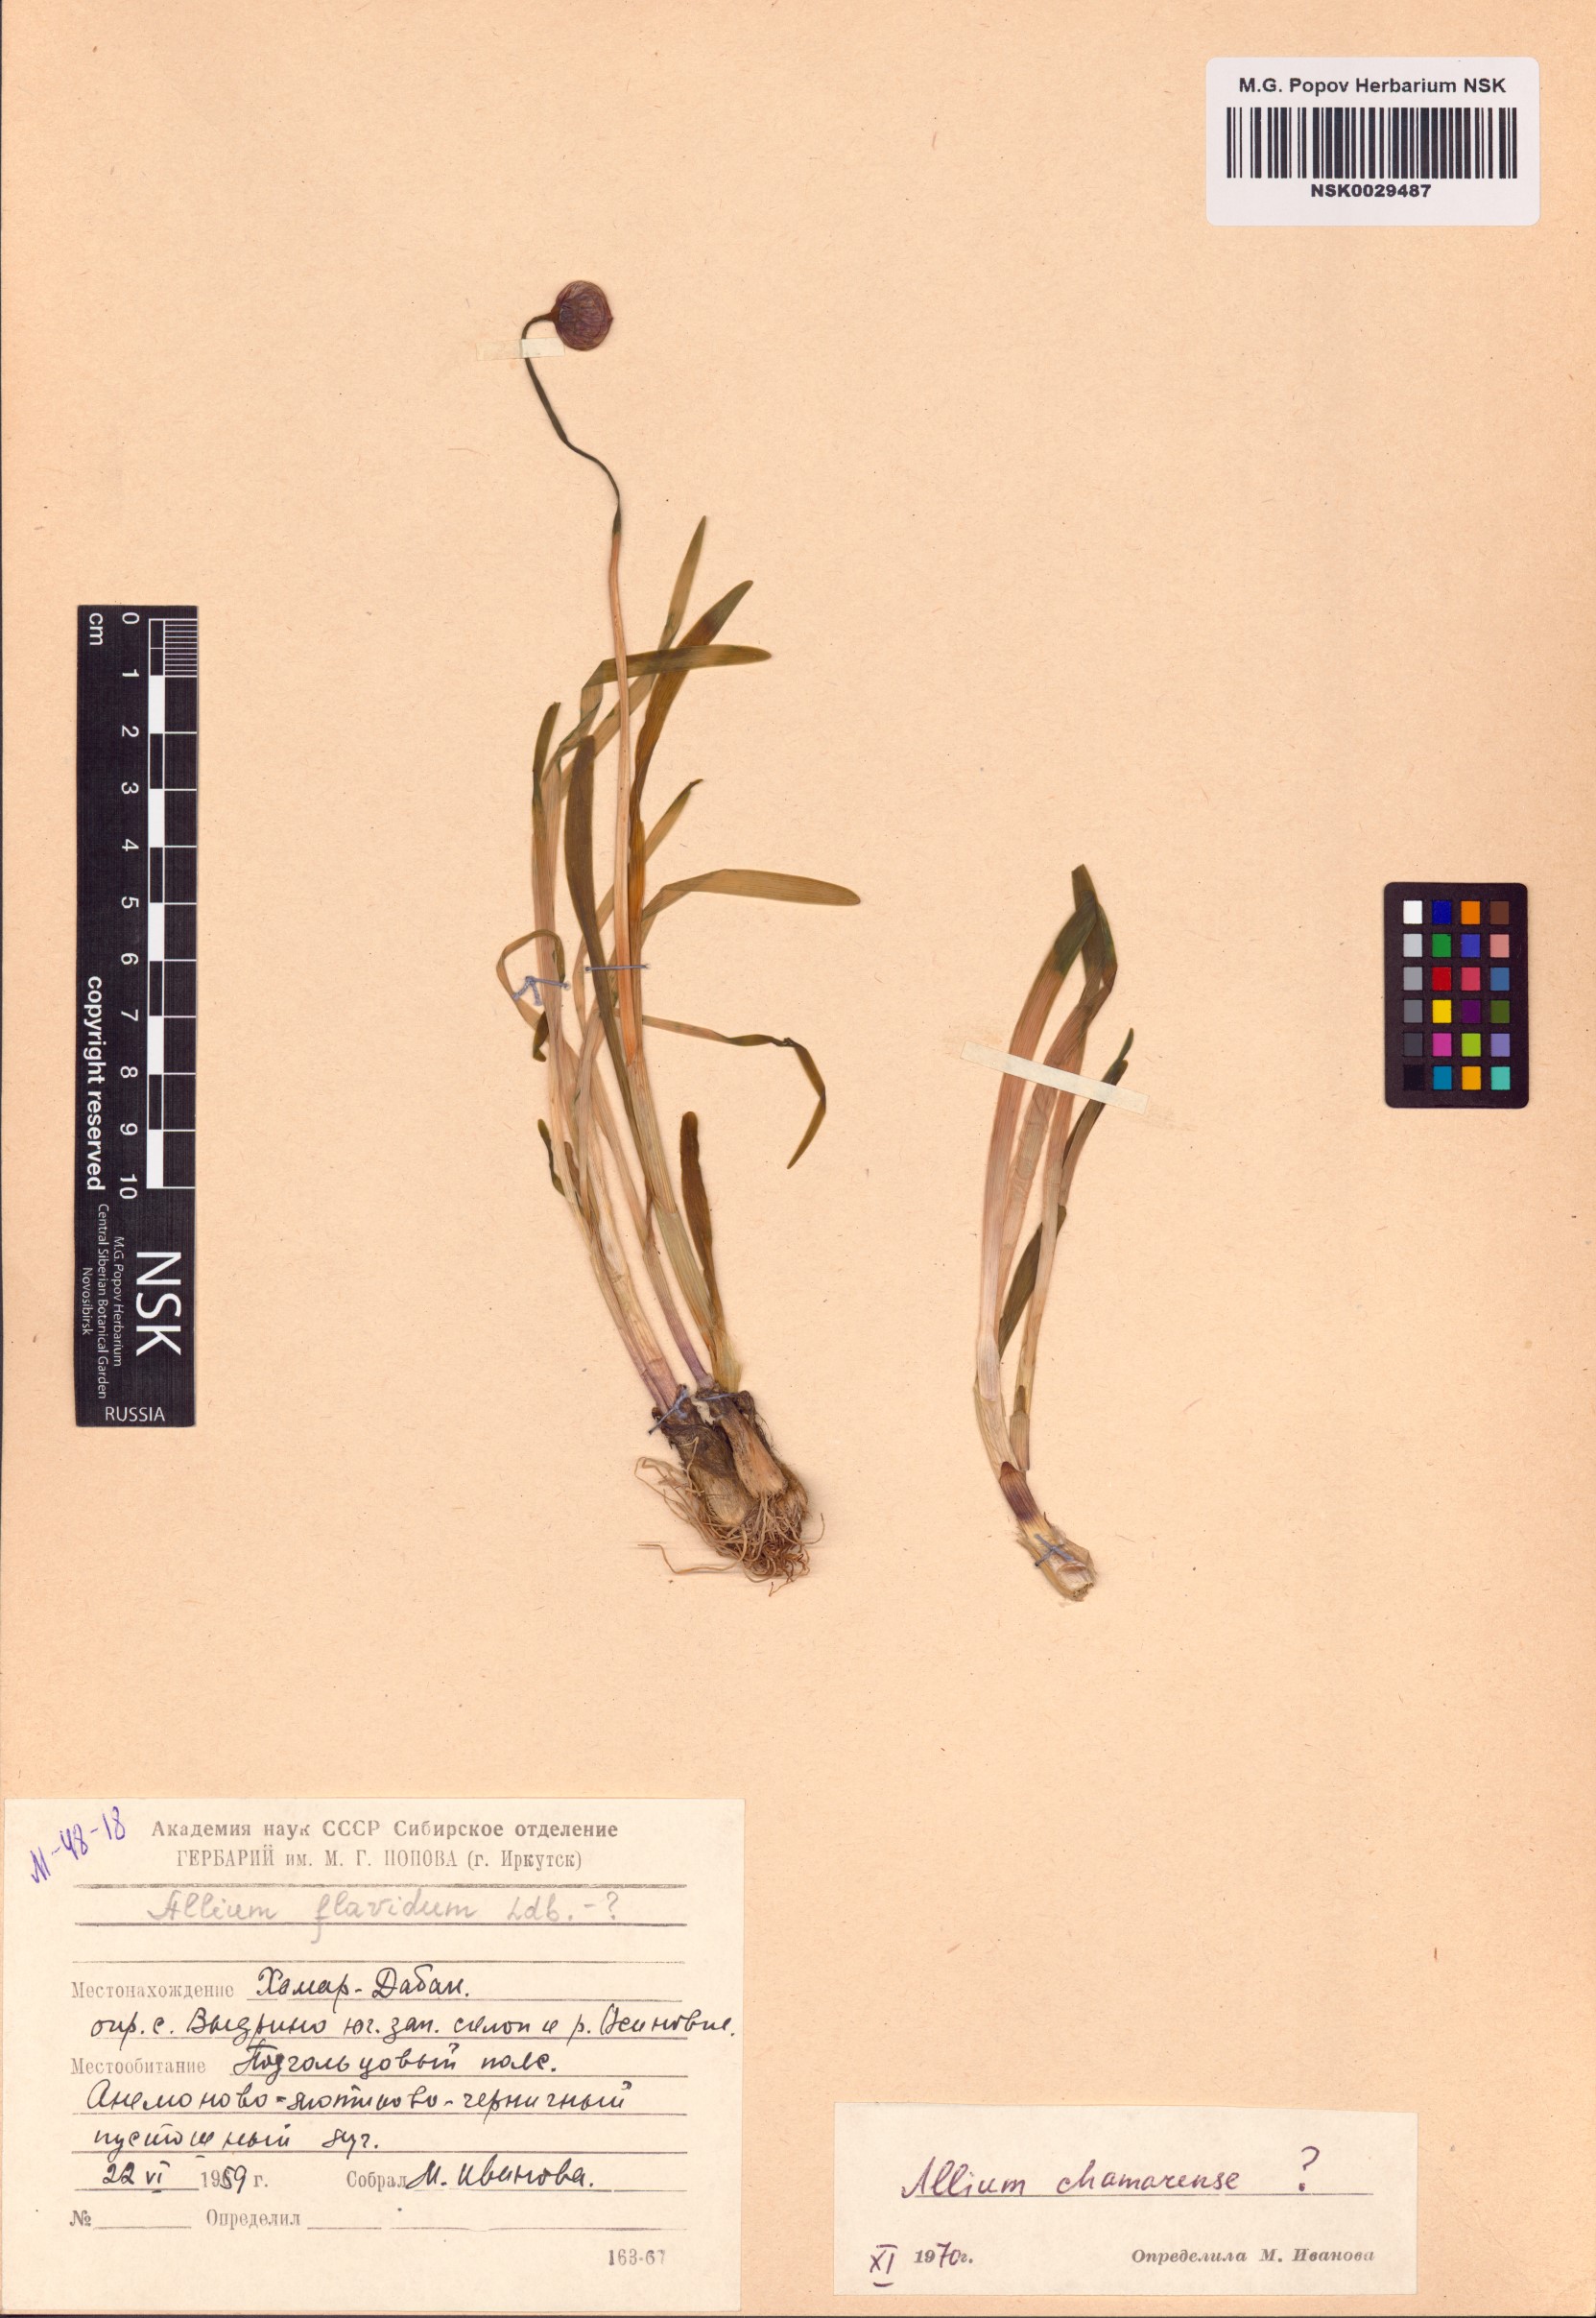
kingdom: Plantae
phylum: Tracheophyta
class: Liliopsida
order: Asparagales
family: Amaryllidaceae
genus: Allium
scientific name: Allium chamarense
